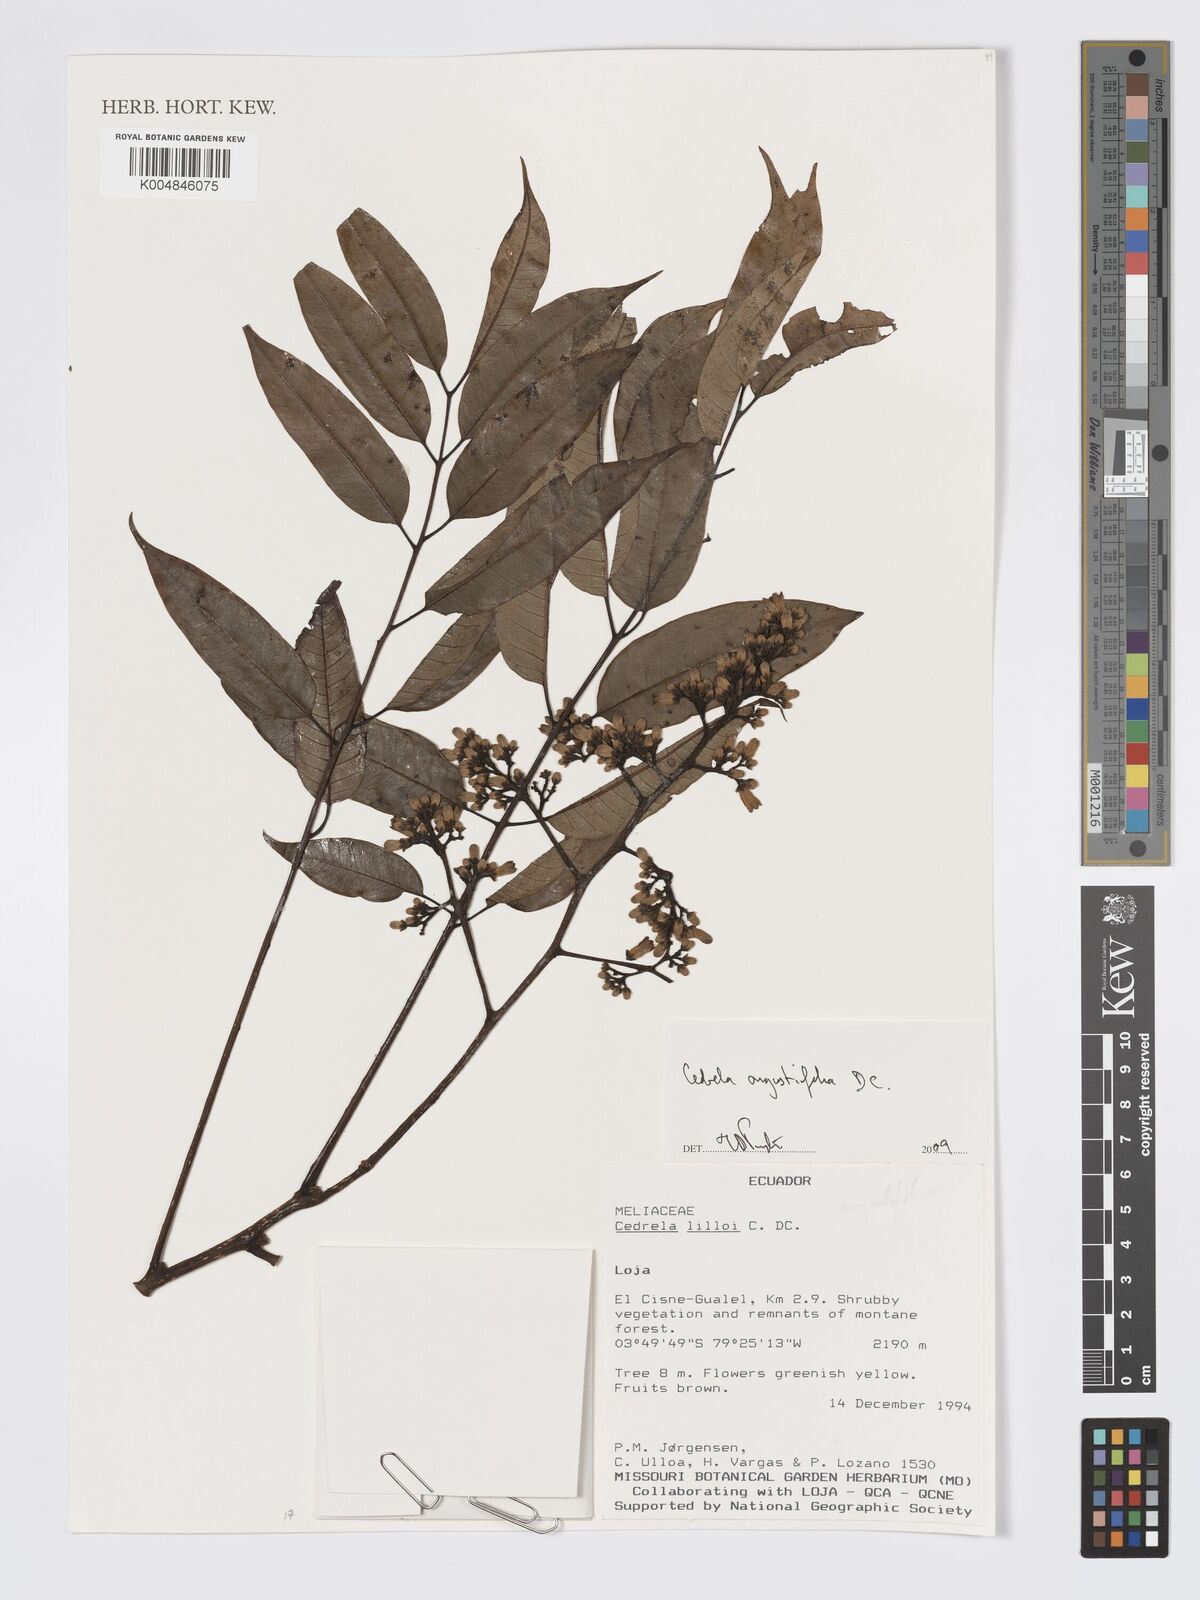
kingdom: Plantae
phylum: Tracheophyta
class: Magnoliopsida
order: Sapindales
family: Meliaceae
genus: Cedrela
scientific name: Cedrela odorata
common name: Red cedar
